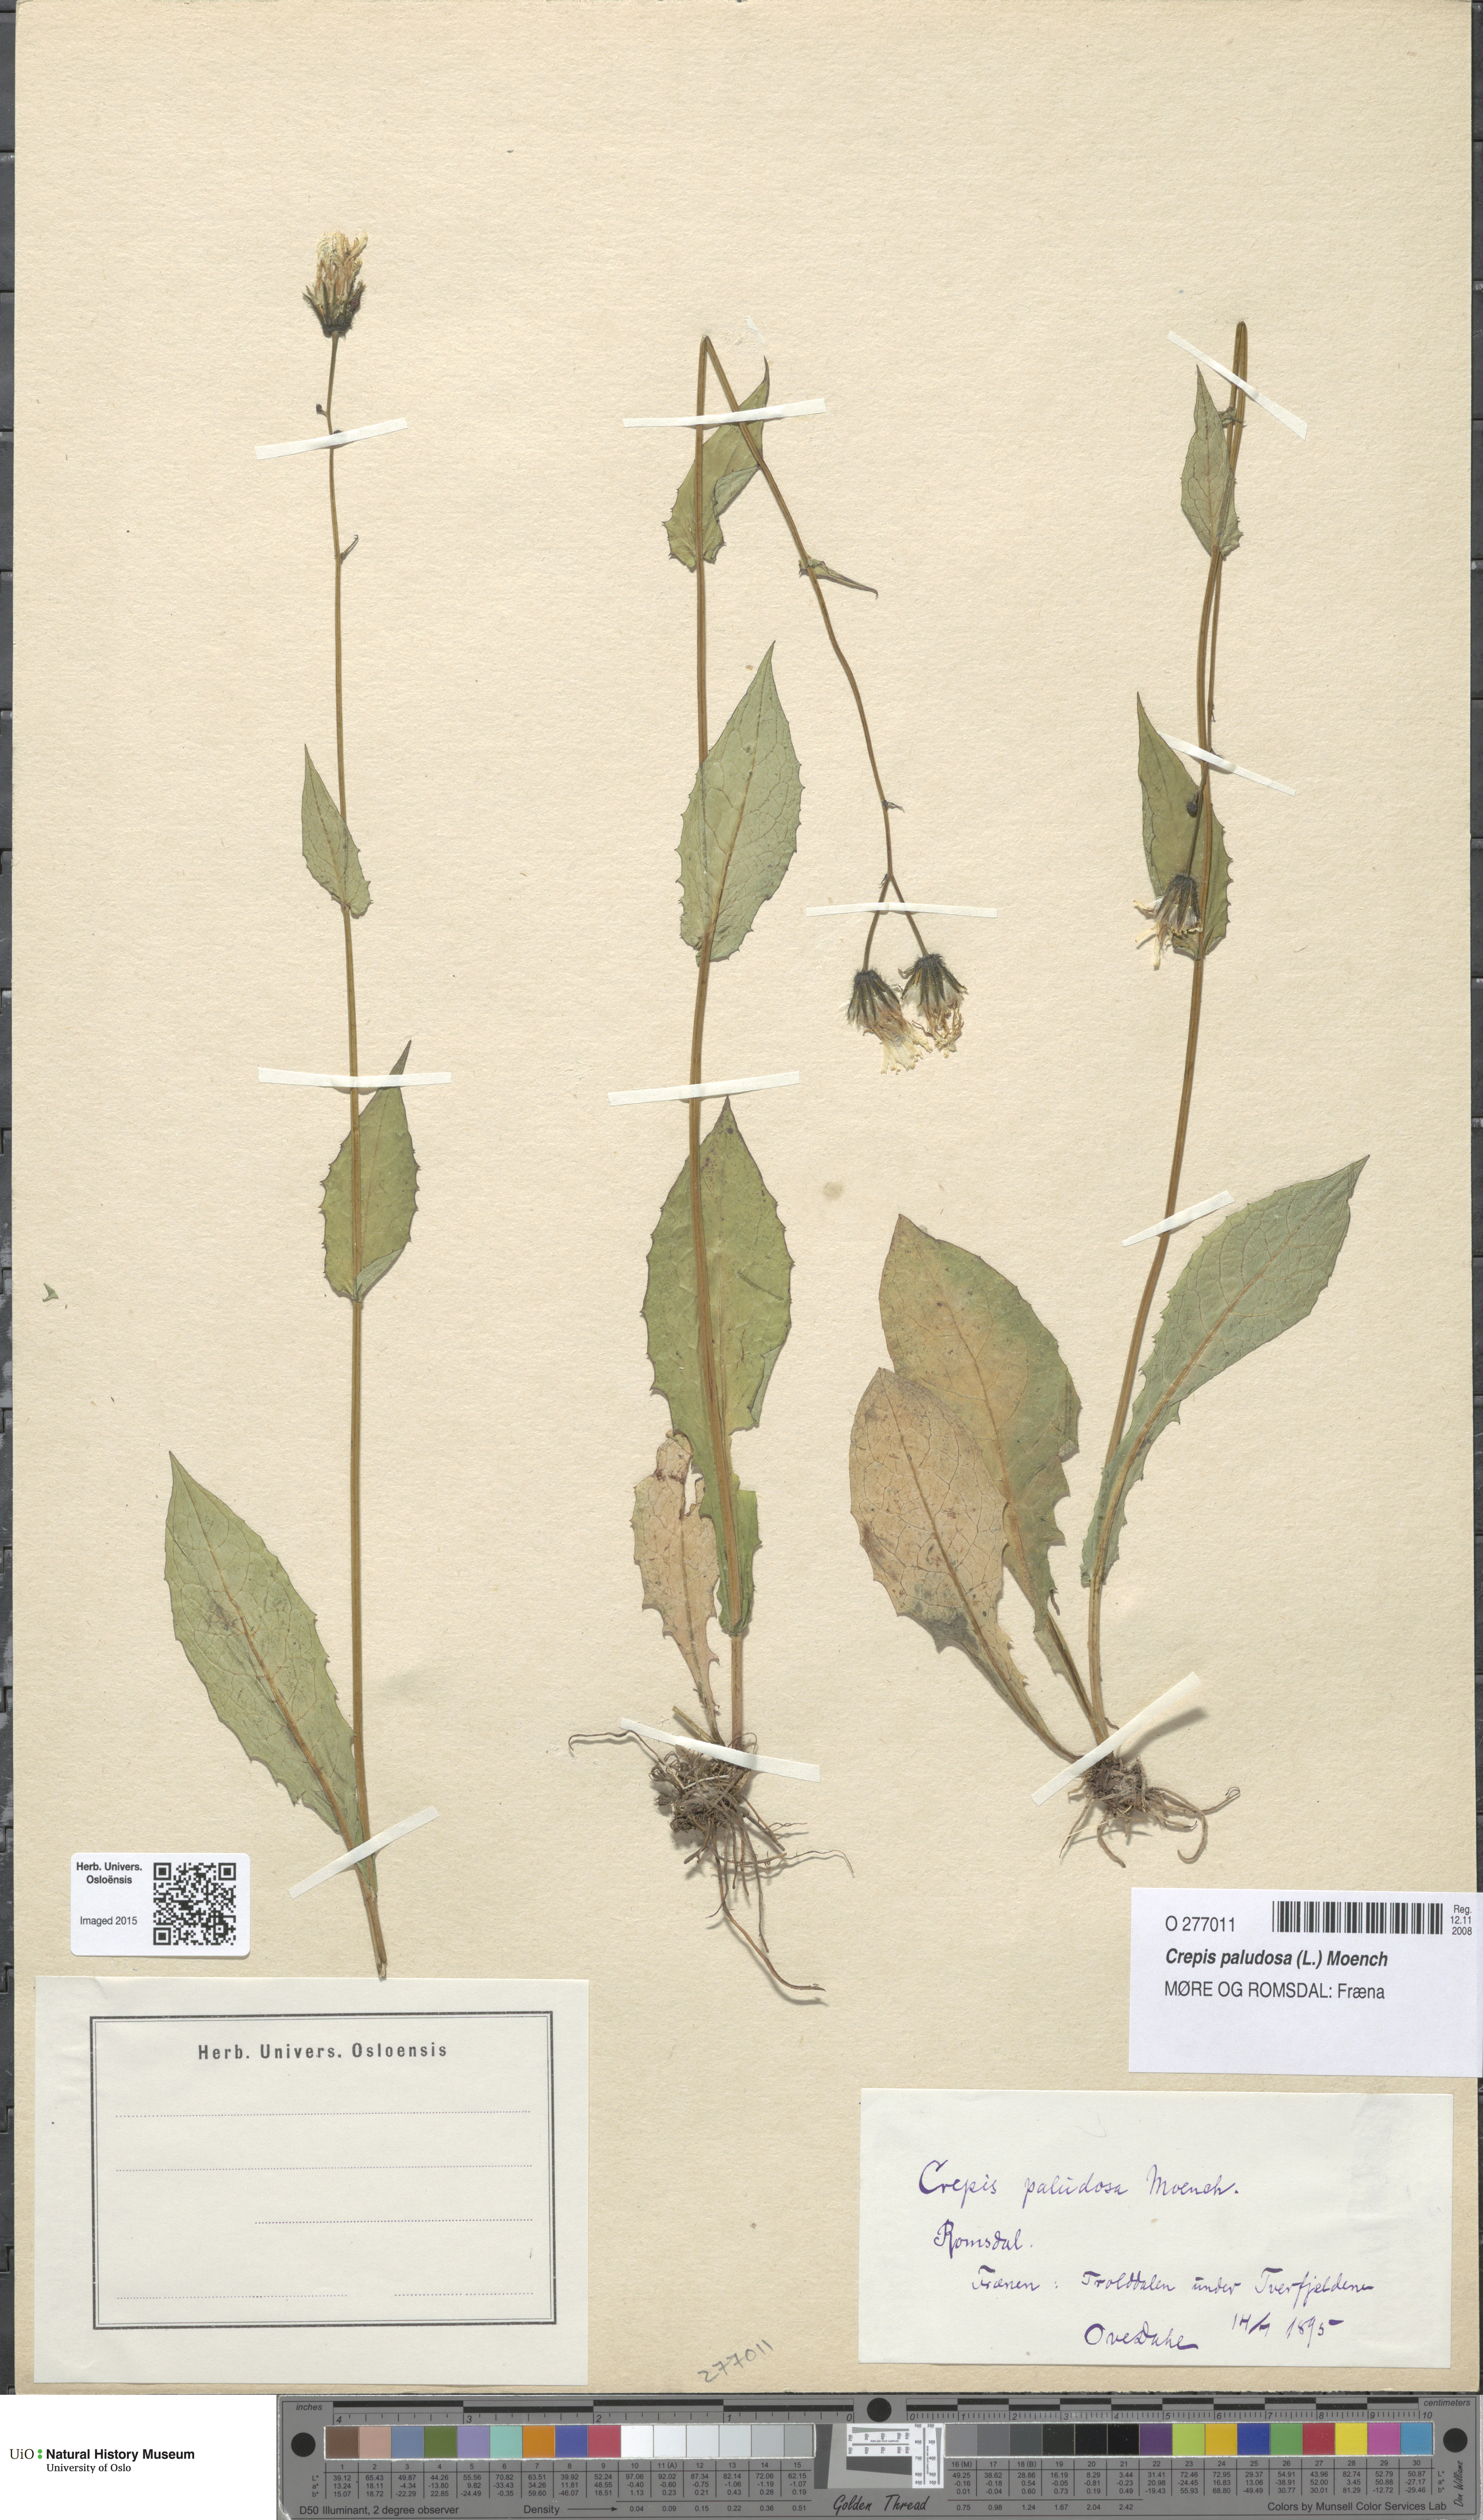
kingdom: Plantae
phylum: Tracheophyta
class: Magnoliopsida
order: Asterales
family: Asteraceae
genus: Crepis
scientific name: Crepis paludosa
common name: Marsh hawk's-beard
